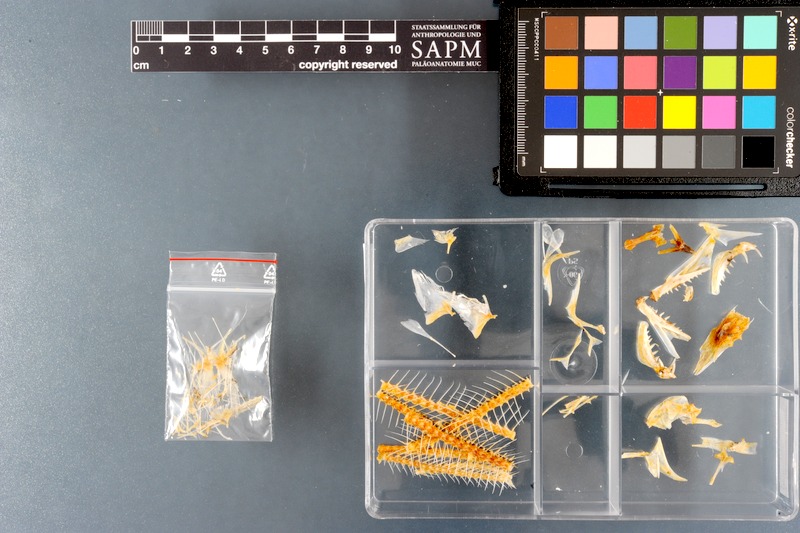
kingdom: Animalia
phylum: Chordata
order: Perciformes
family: Trichiuridae
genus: Trichiurus
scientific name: Trichiurus lepturus
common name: Largehead hairtail
